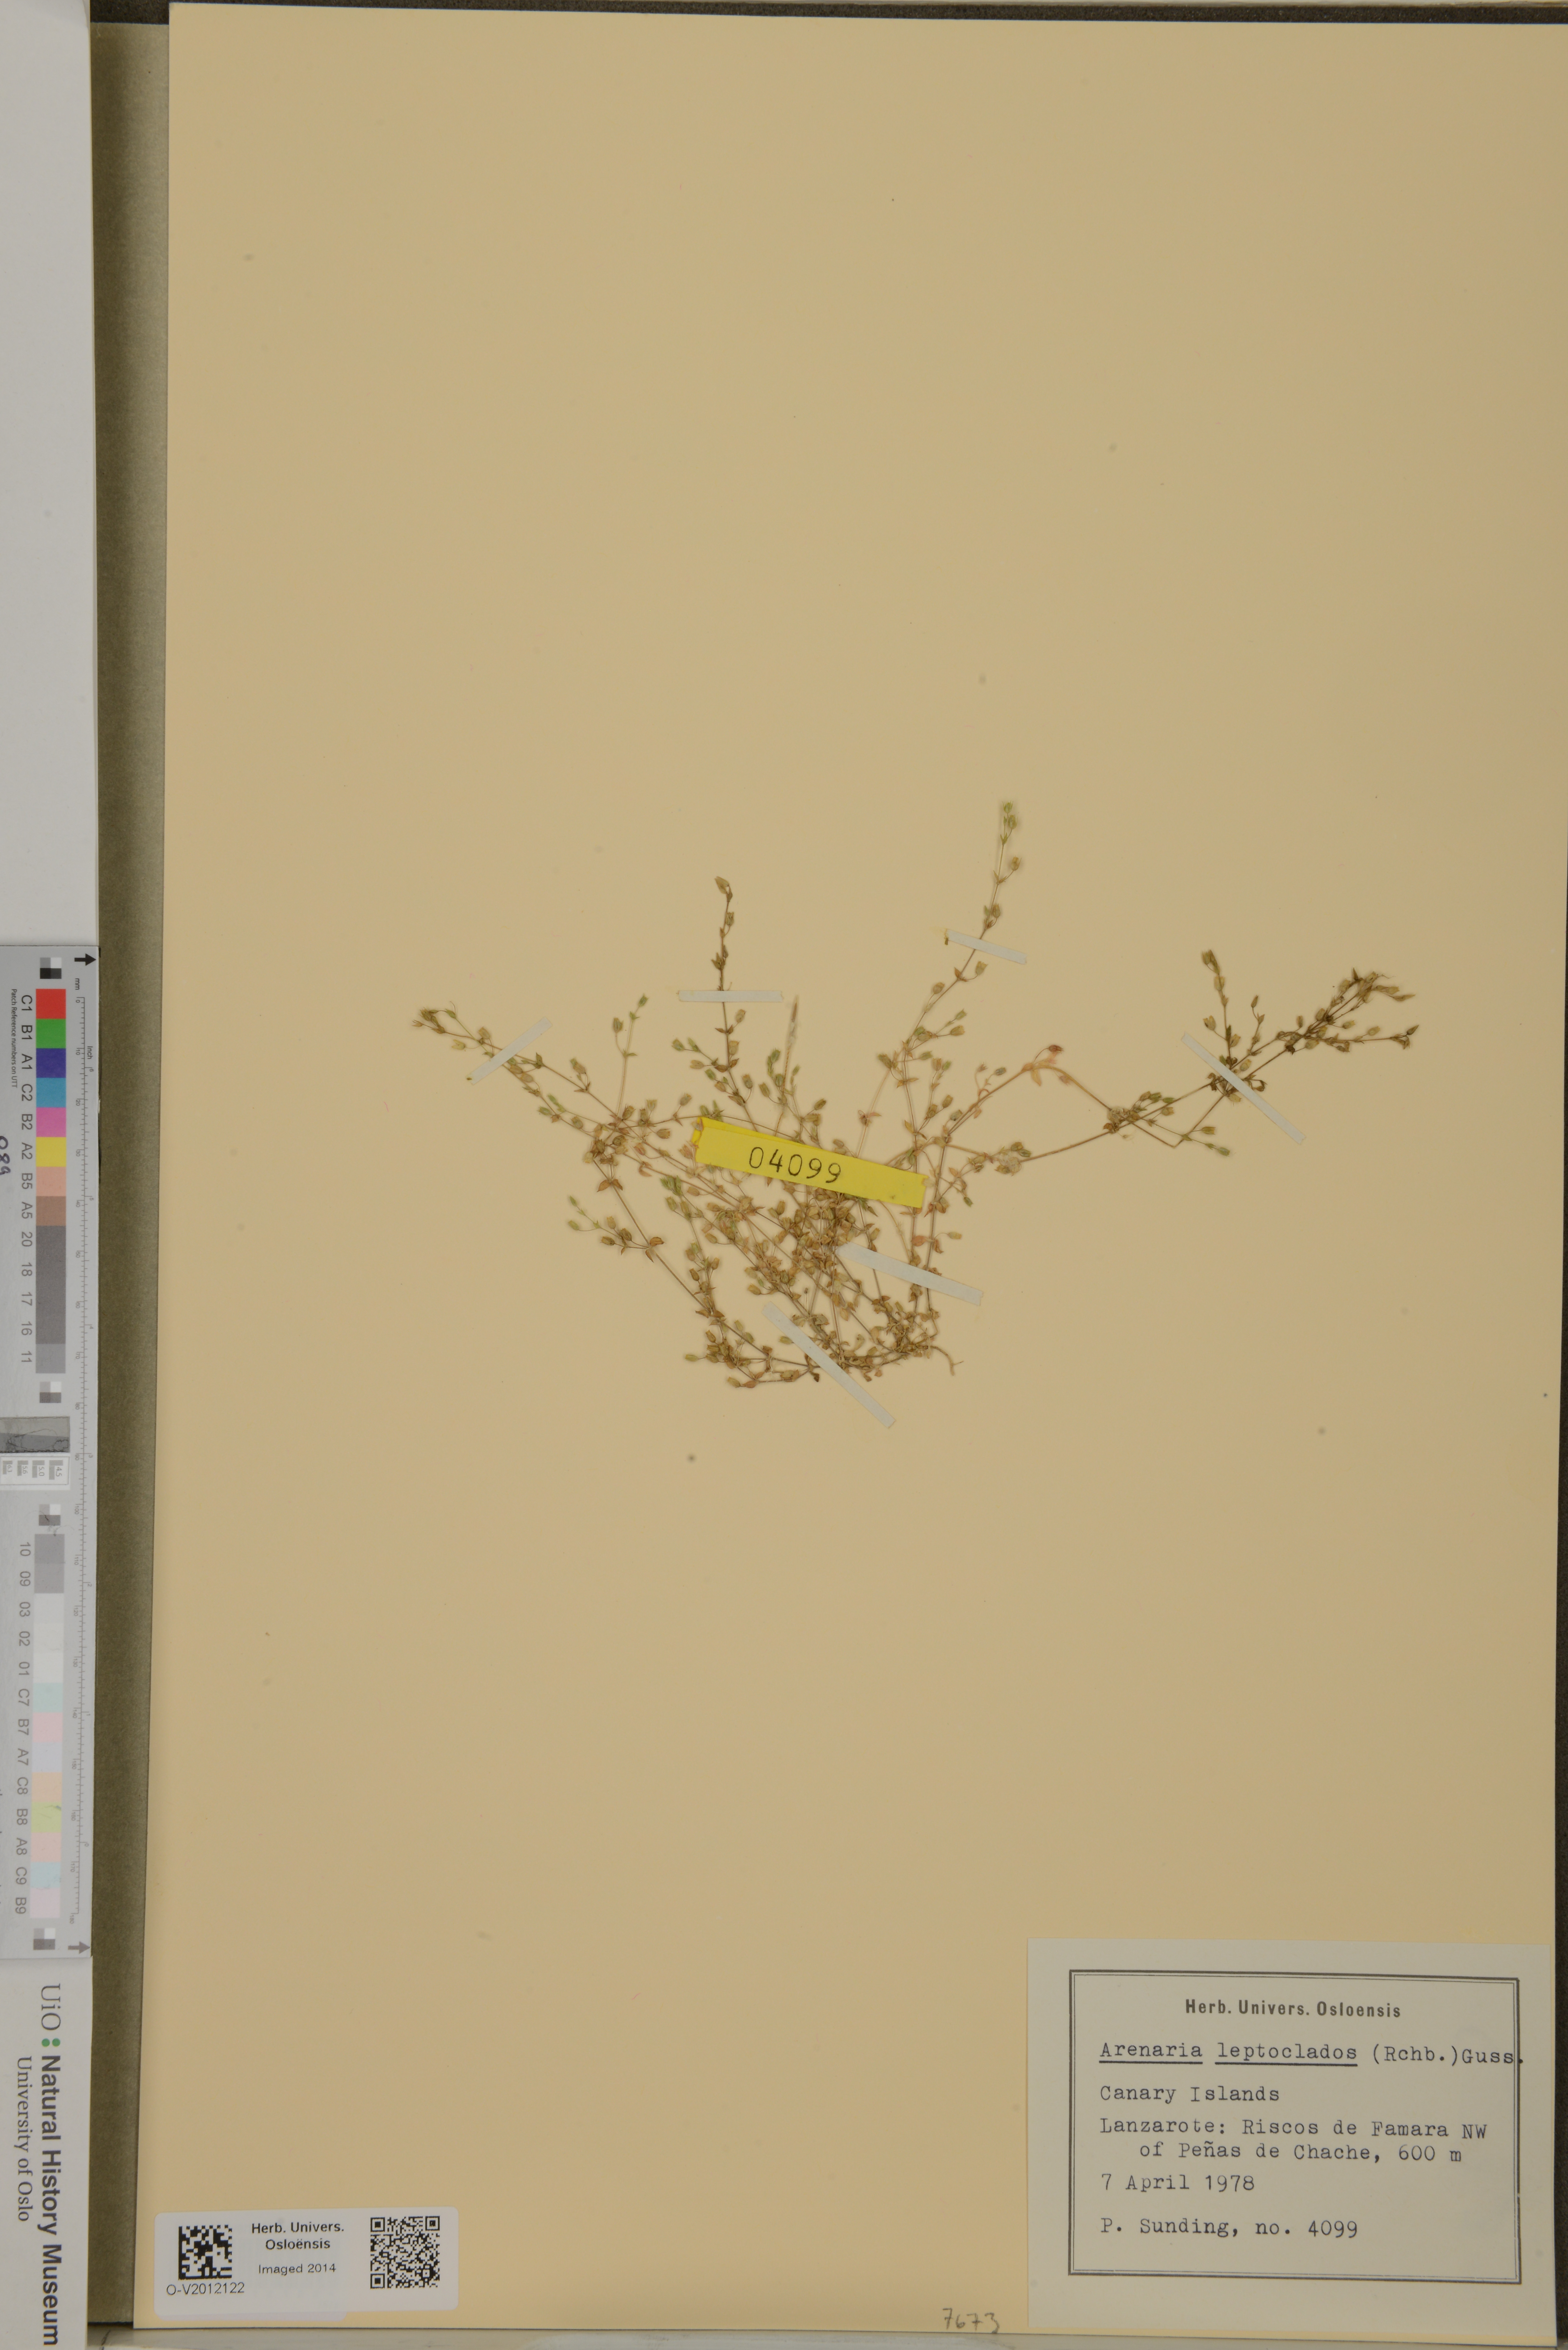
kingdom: Plantae
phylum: Tracheophyta
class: Magnoliopsida
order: Caryophyllales
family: Caryophyllaceae
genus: Arenaria
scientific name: Arenaria leptoclados
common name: Thyme-leaved sandwort
